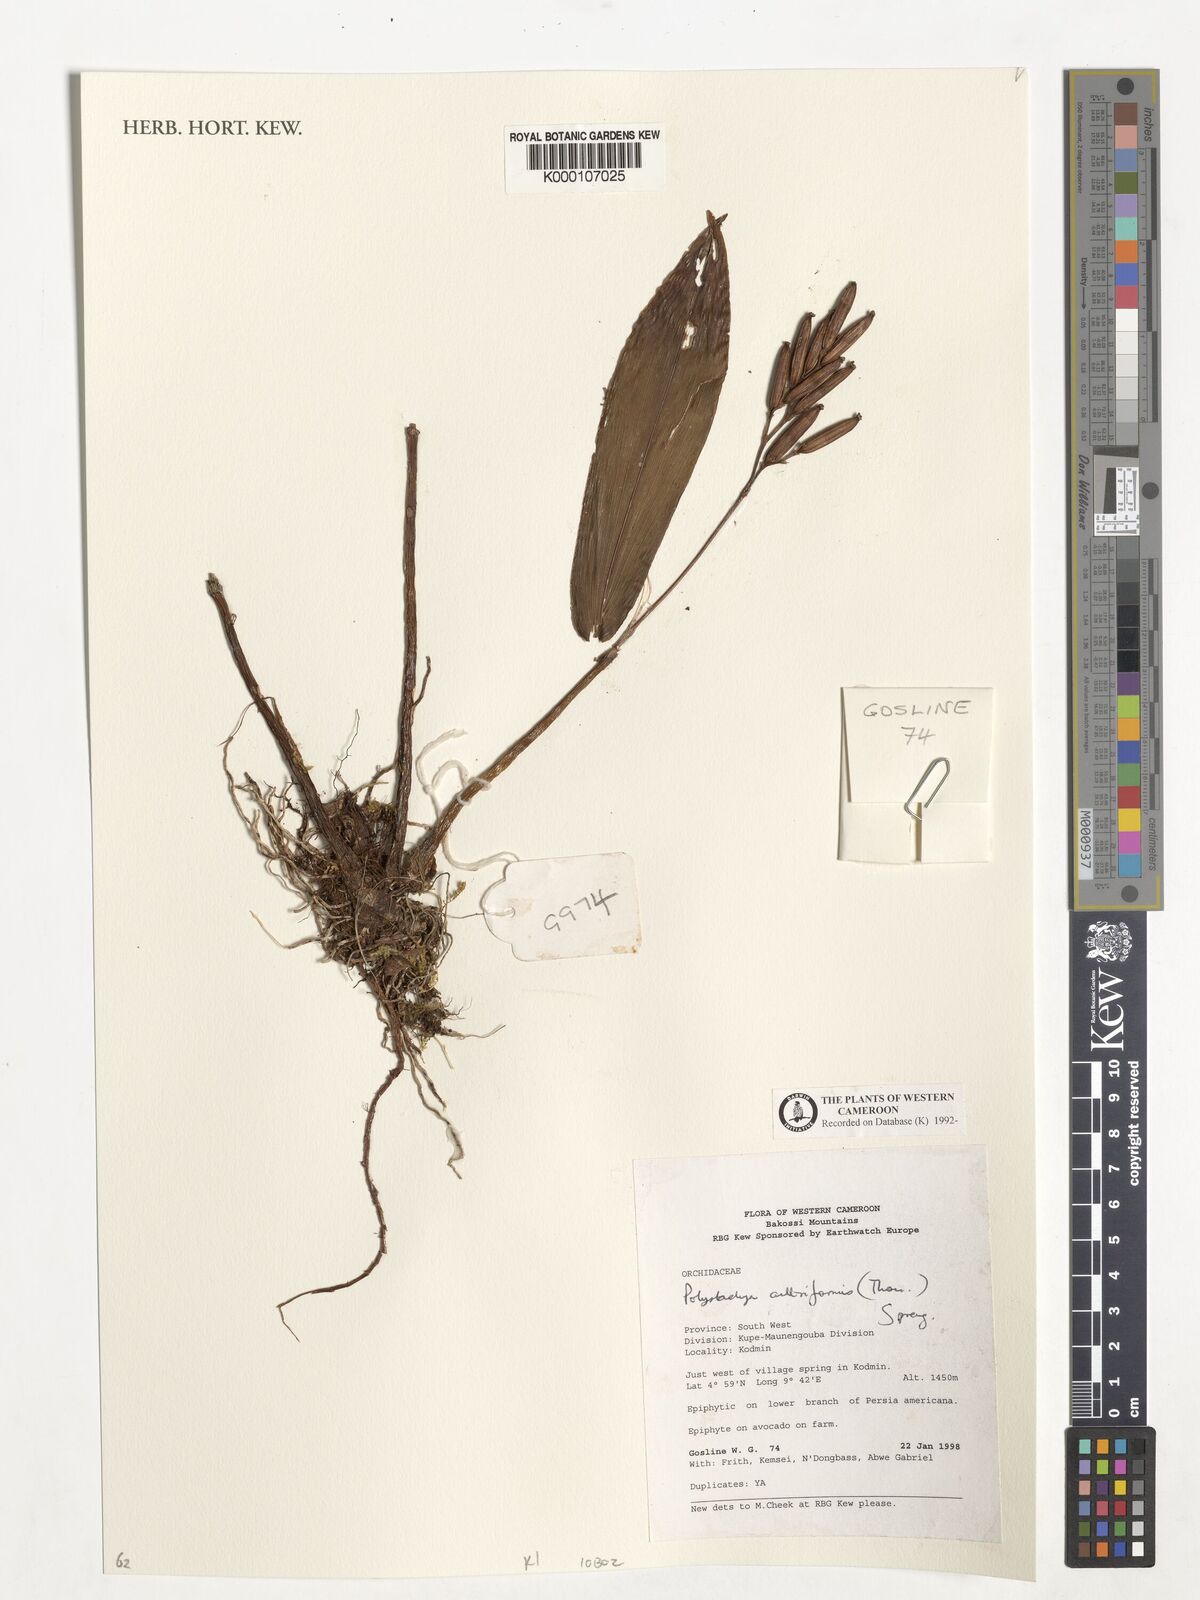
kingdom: Plantae
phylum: Tracheophyta
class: Liliopsida
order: Asparagales
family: Orchidaceae
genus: Polystachya
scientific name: Polystachya cultriformis
